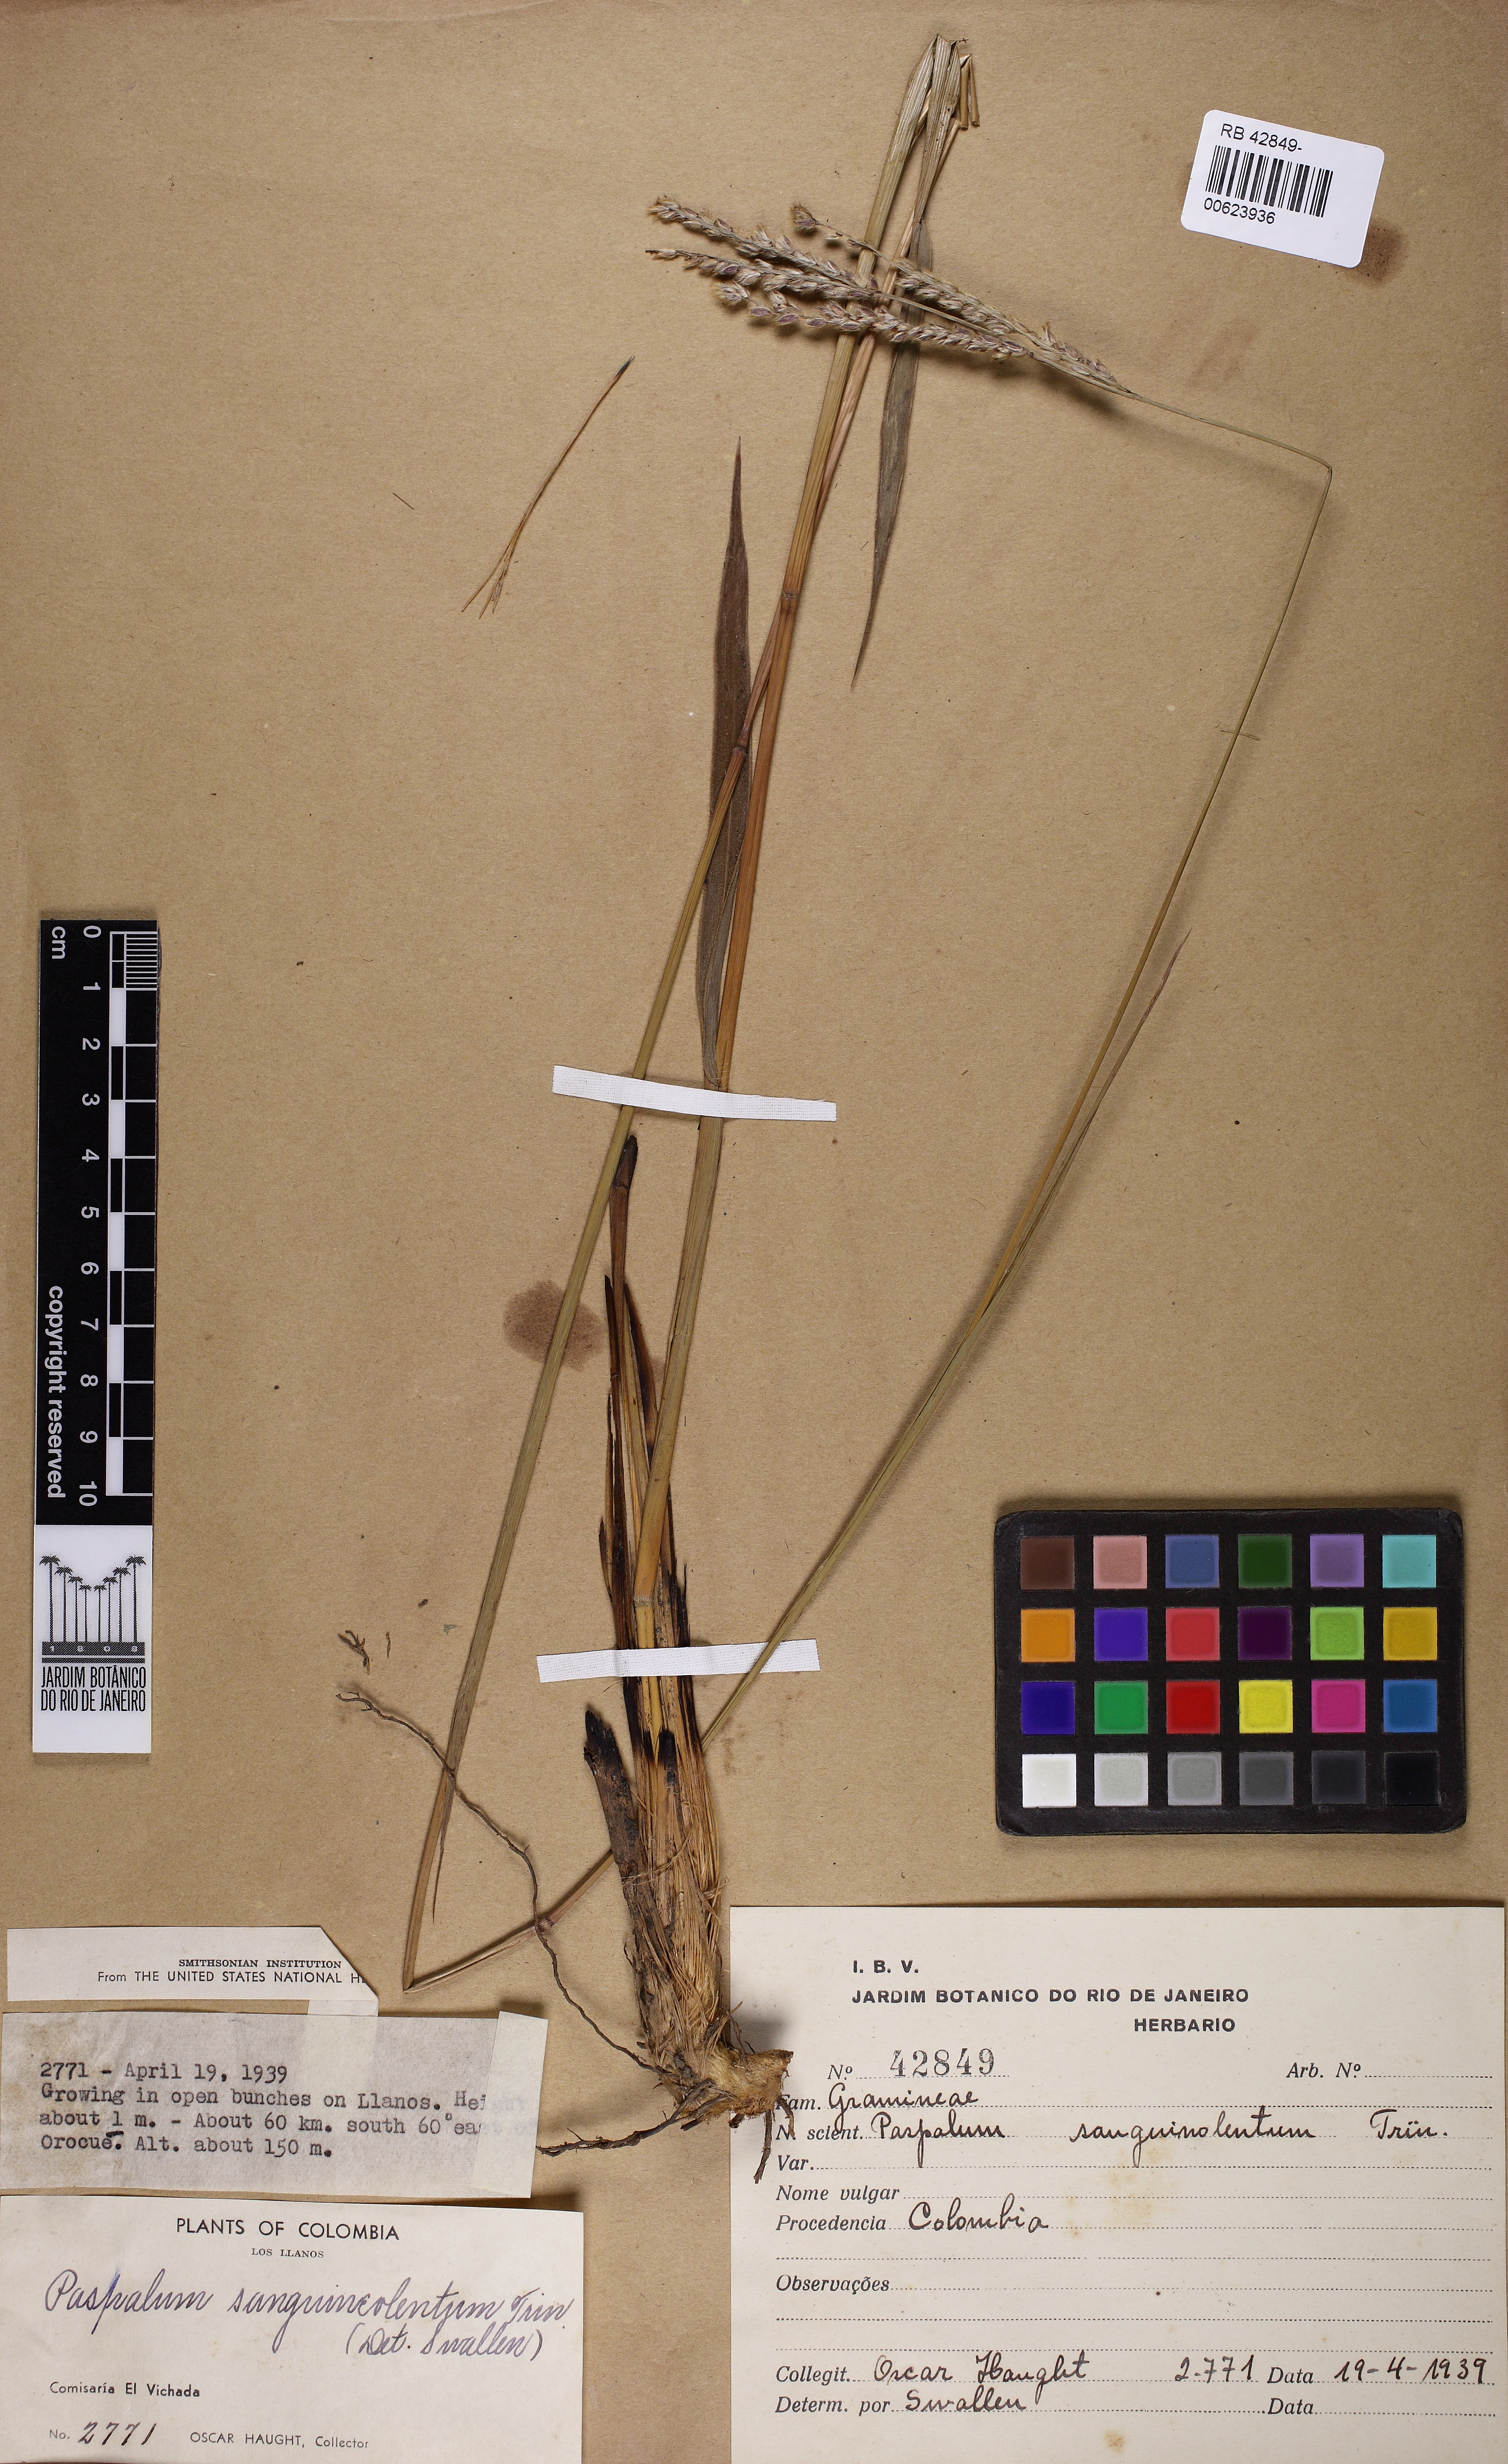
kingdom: Plantae
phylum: Tracheophyta
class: Liliopsida
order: Poales
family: Poaceae
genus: Paspalum
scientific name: Paspalum erianthum
